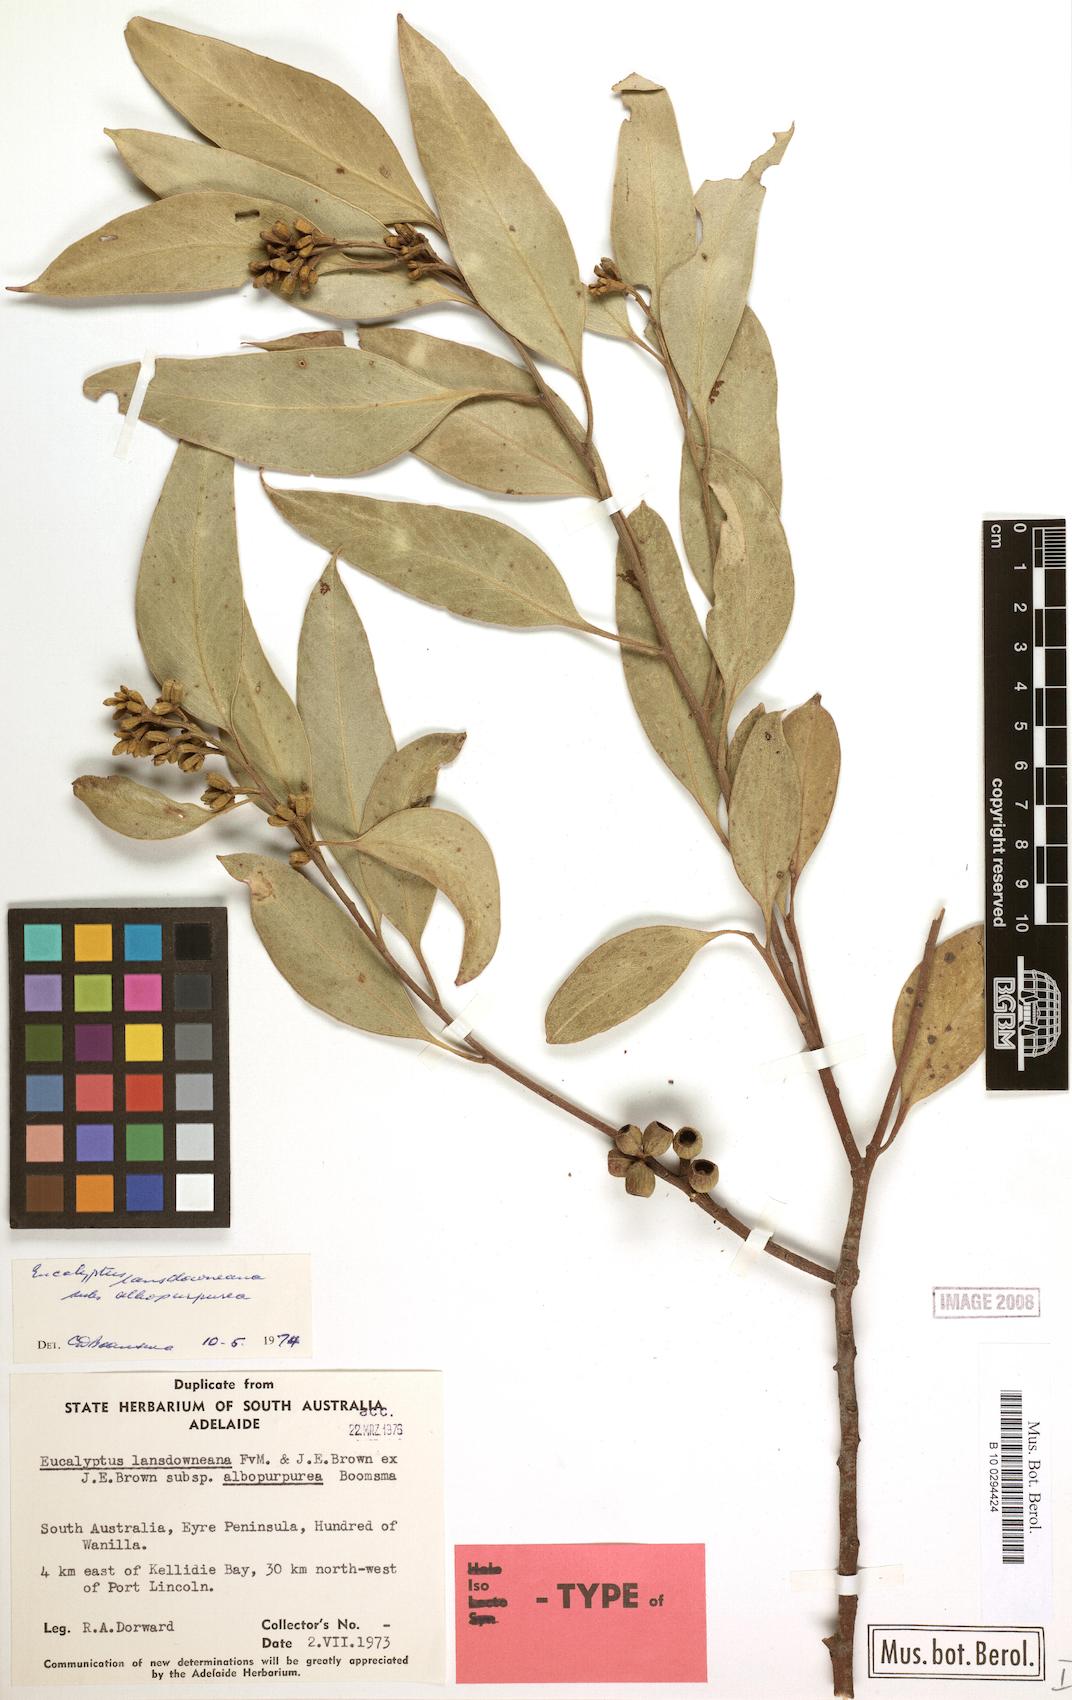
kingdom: Plantae
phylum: Tracheophyta
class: Magnoliopsida
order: Myrtales
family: Myrtaceae
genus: Eucalyptus
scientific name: Eucalyptus albopurpurea
